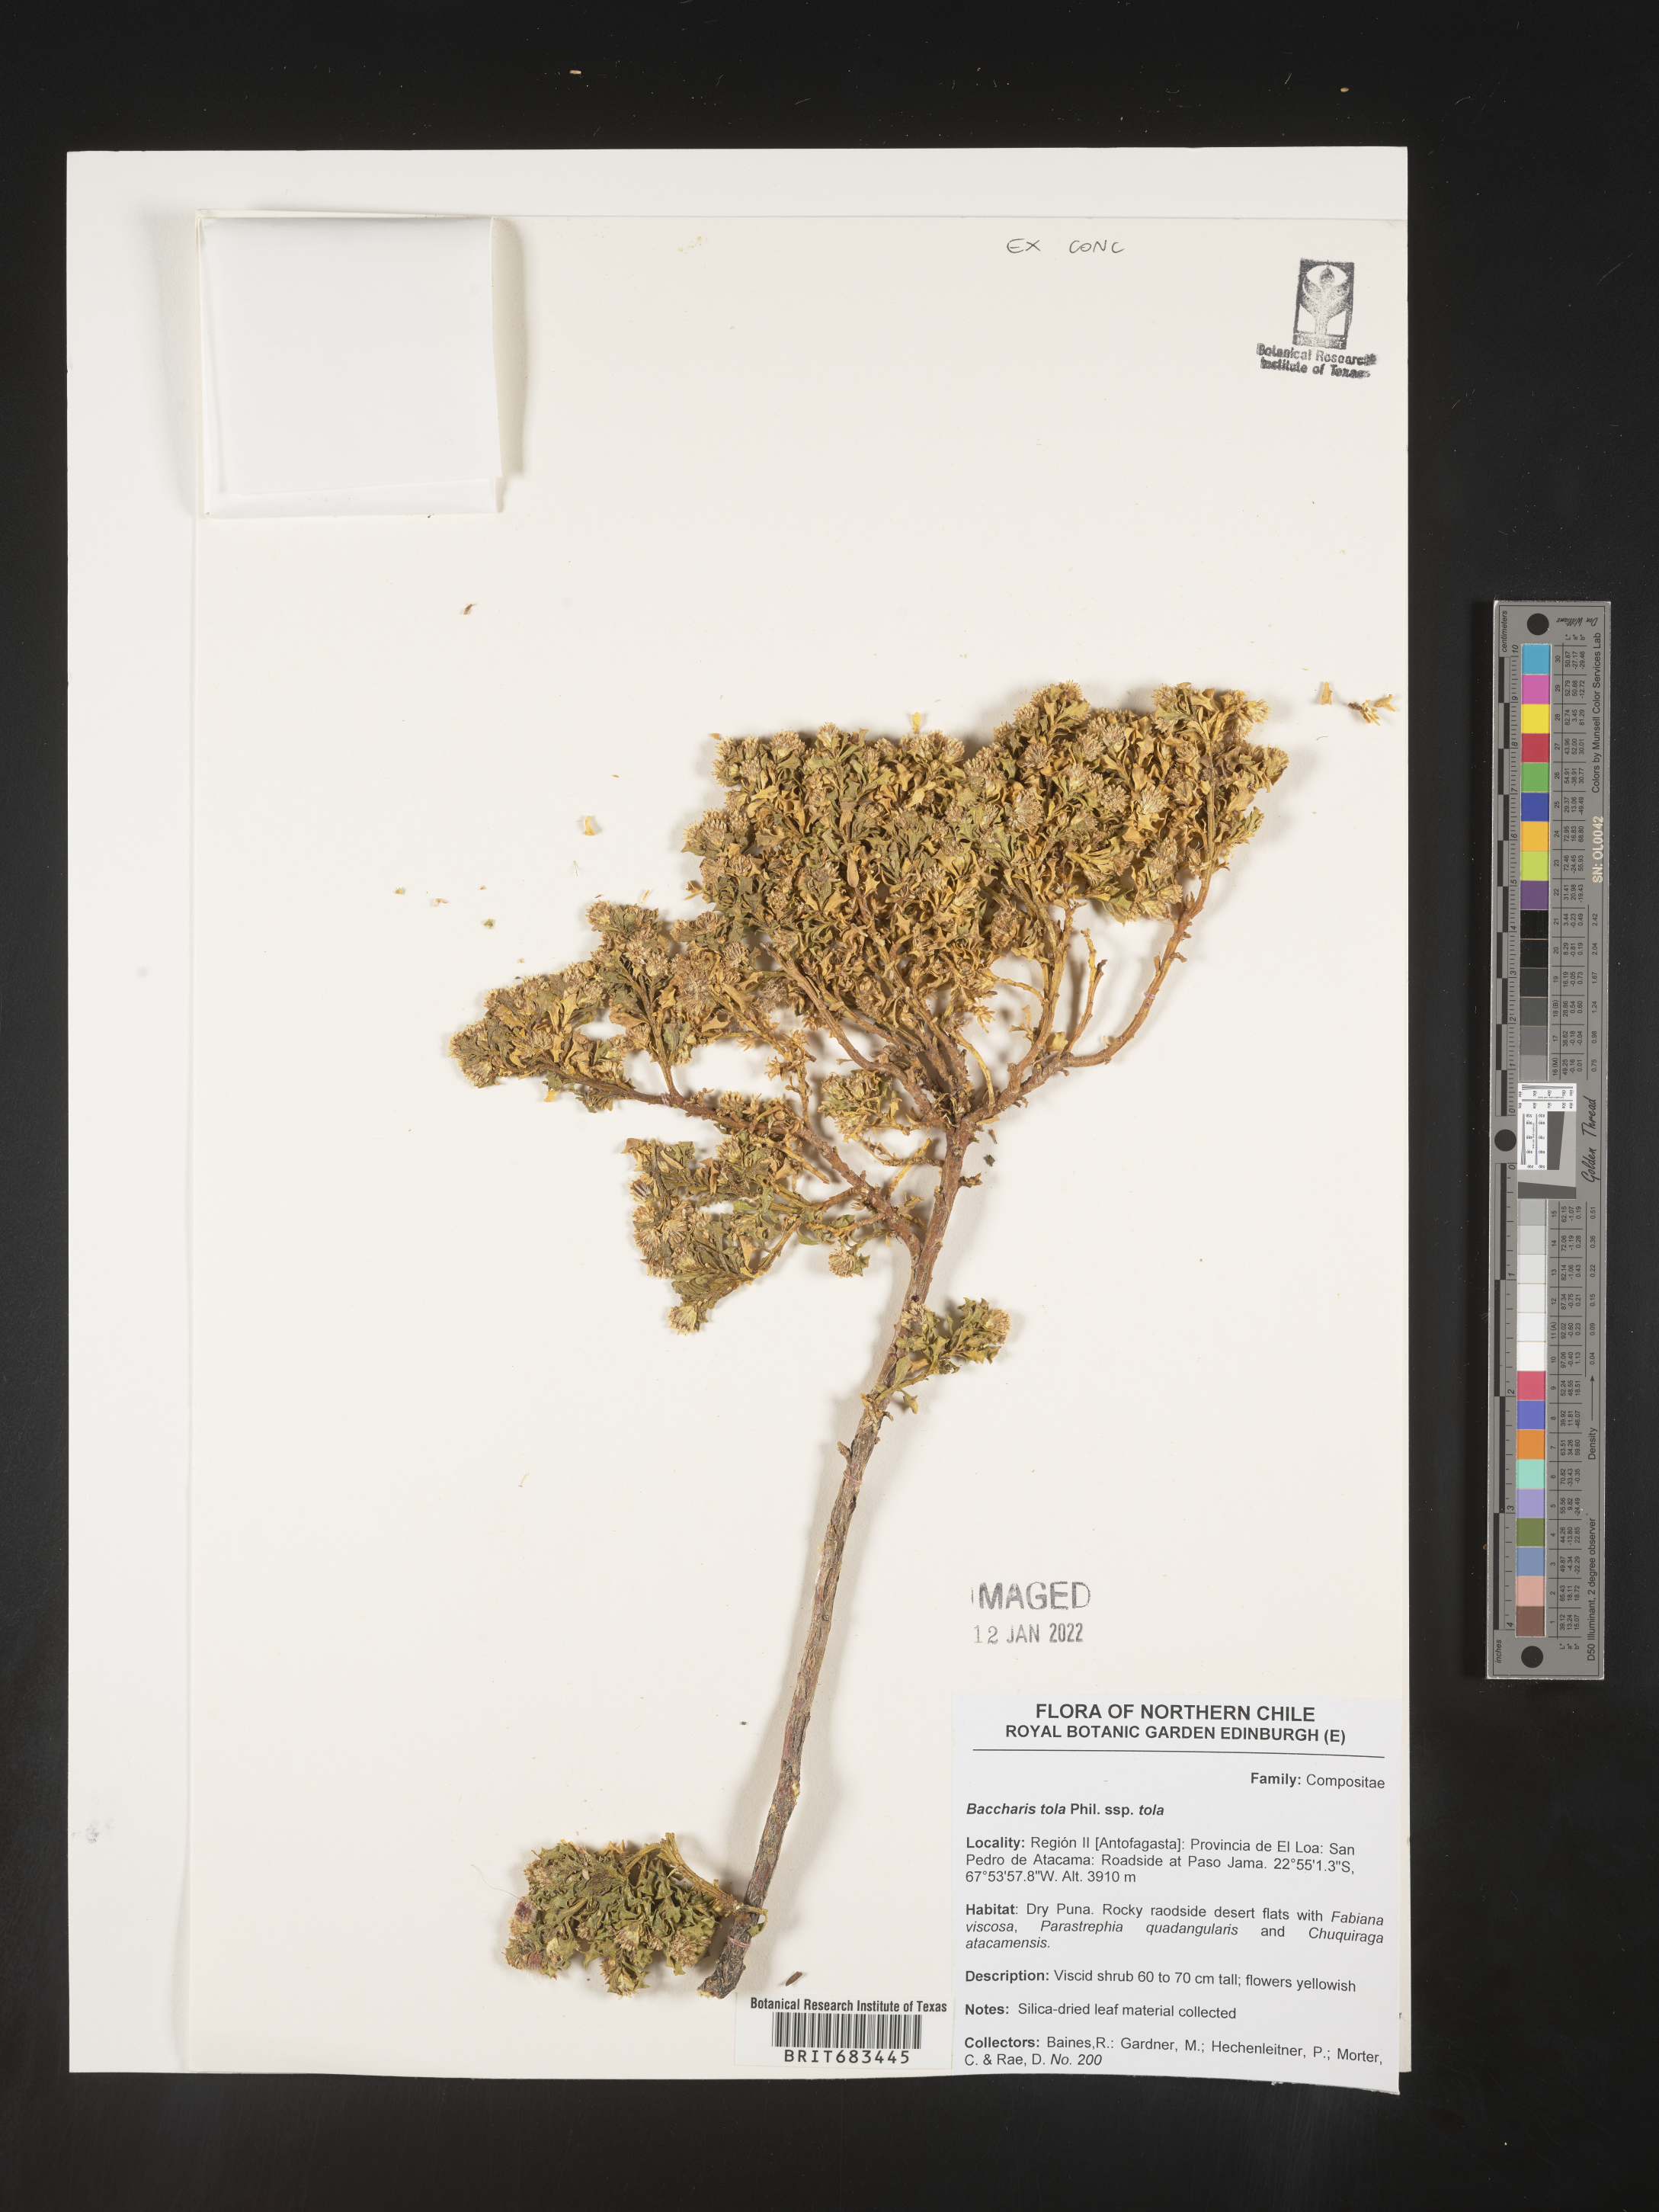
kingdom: Plantae
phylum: Tracheophyta
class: Magnoliopsida
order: Asterales
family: Asteraceae
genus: Baccharis
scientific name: Baccharis
